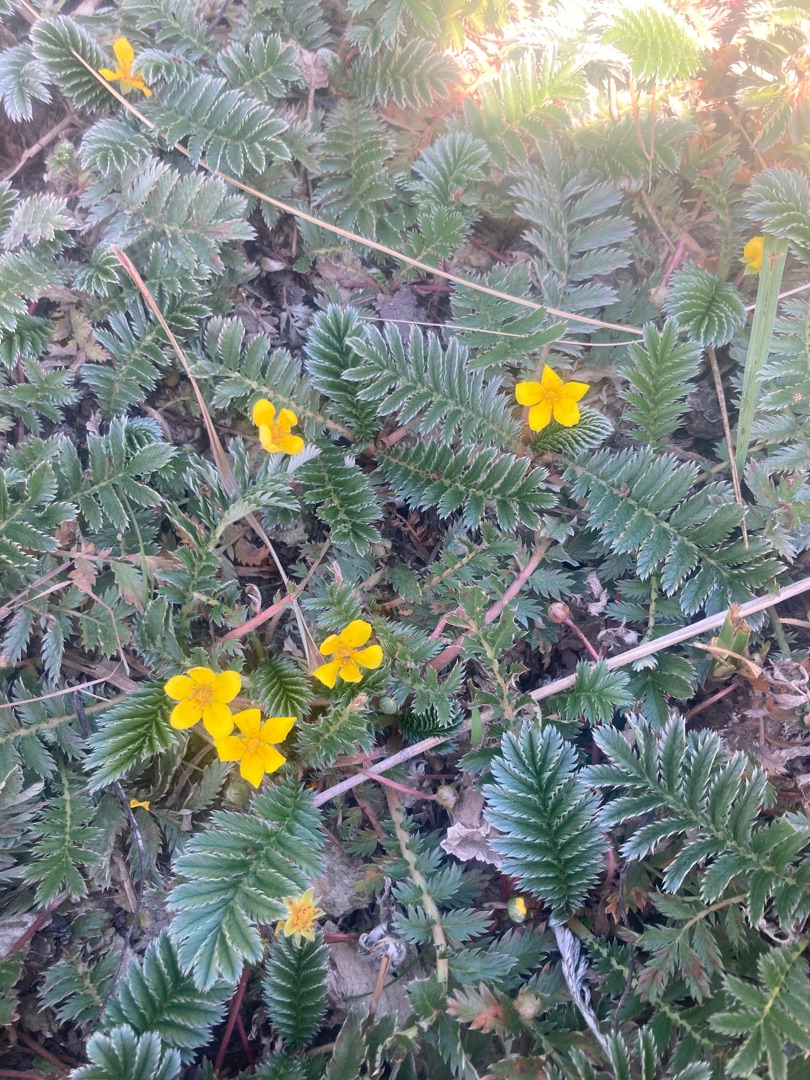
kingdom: Plantae
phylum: Tracheophyta
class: Magnoliopsida
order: Rosales
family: Rosaceae
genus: Argentina
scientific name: Argentina anserina
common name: Gåsepotentil
